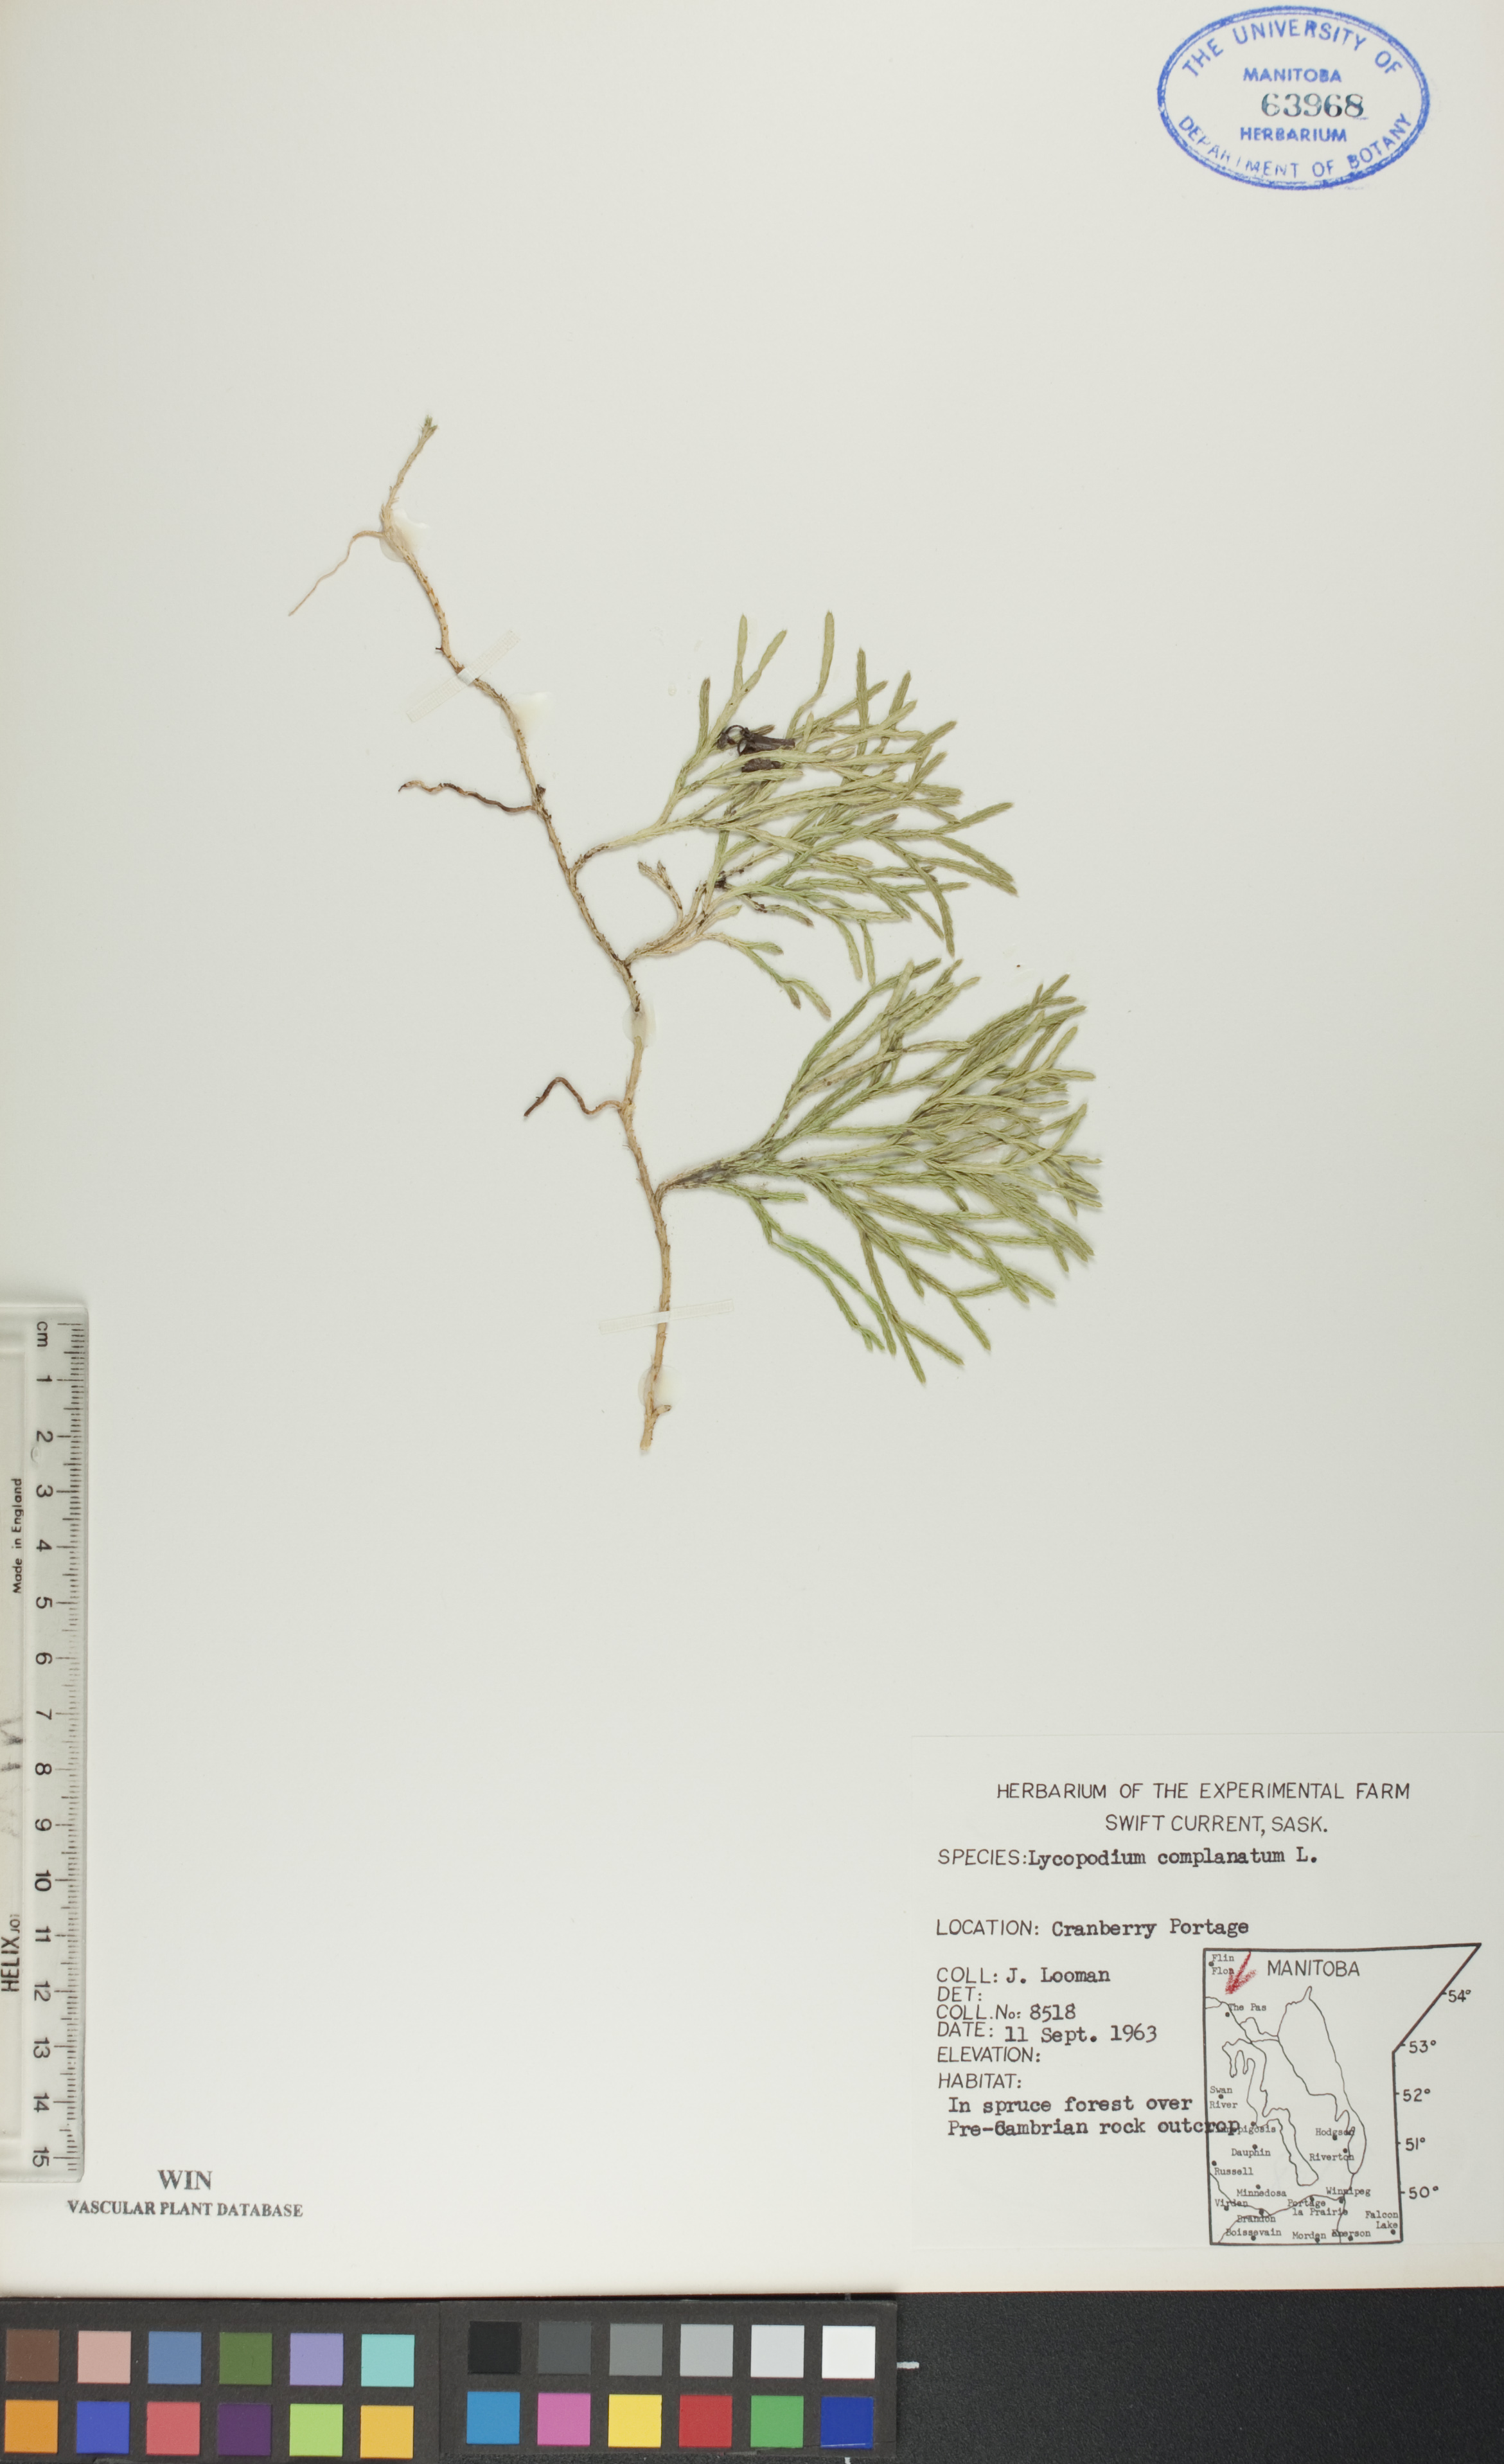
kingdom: Plantae
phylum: Tracheophyta
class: Lycopodiopsida
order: Lycopodiales
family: Lycopodiaceae
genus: Diphasiastrum
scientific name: Diphasiastrum
